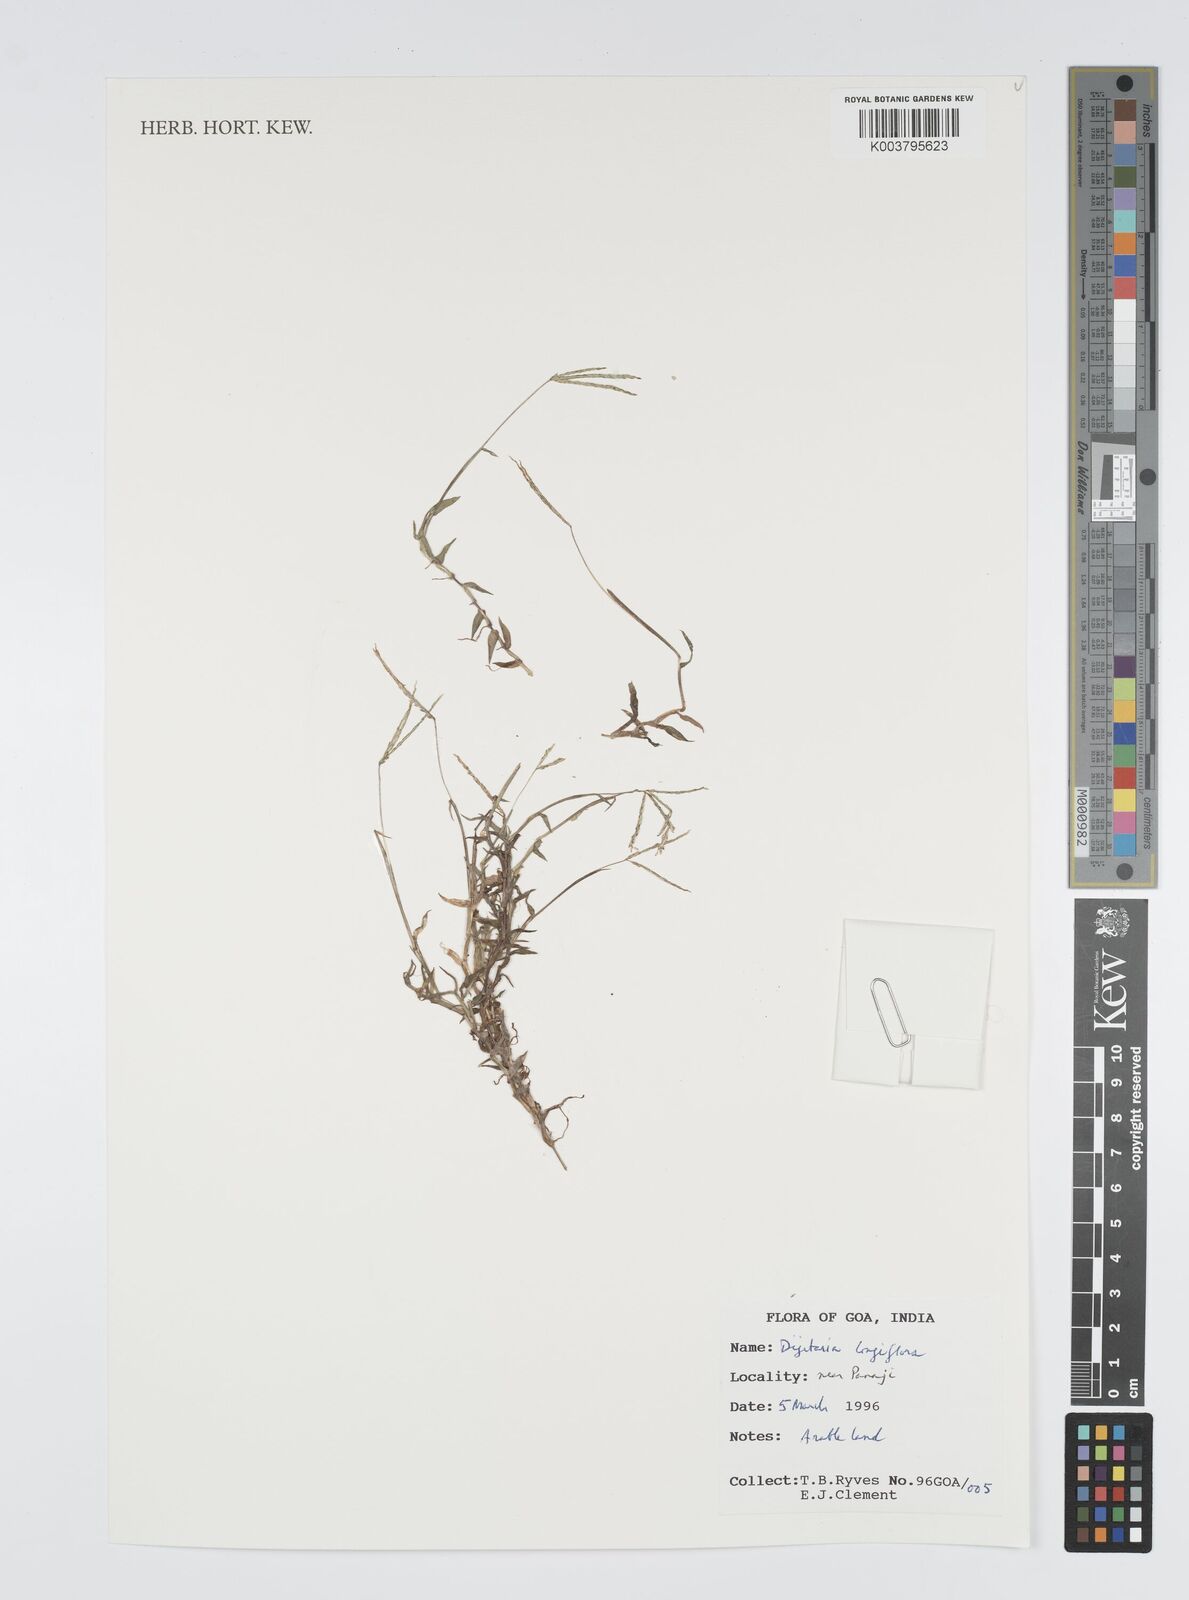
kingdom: Plantae
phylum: Tracheophyta
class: Liliopsida
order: Poales
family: Poaceae
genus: Digitaria
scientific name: Digitaria longiflora
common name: Wire crabgrass
